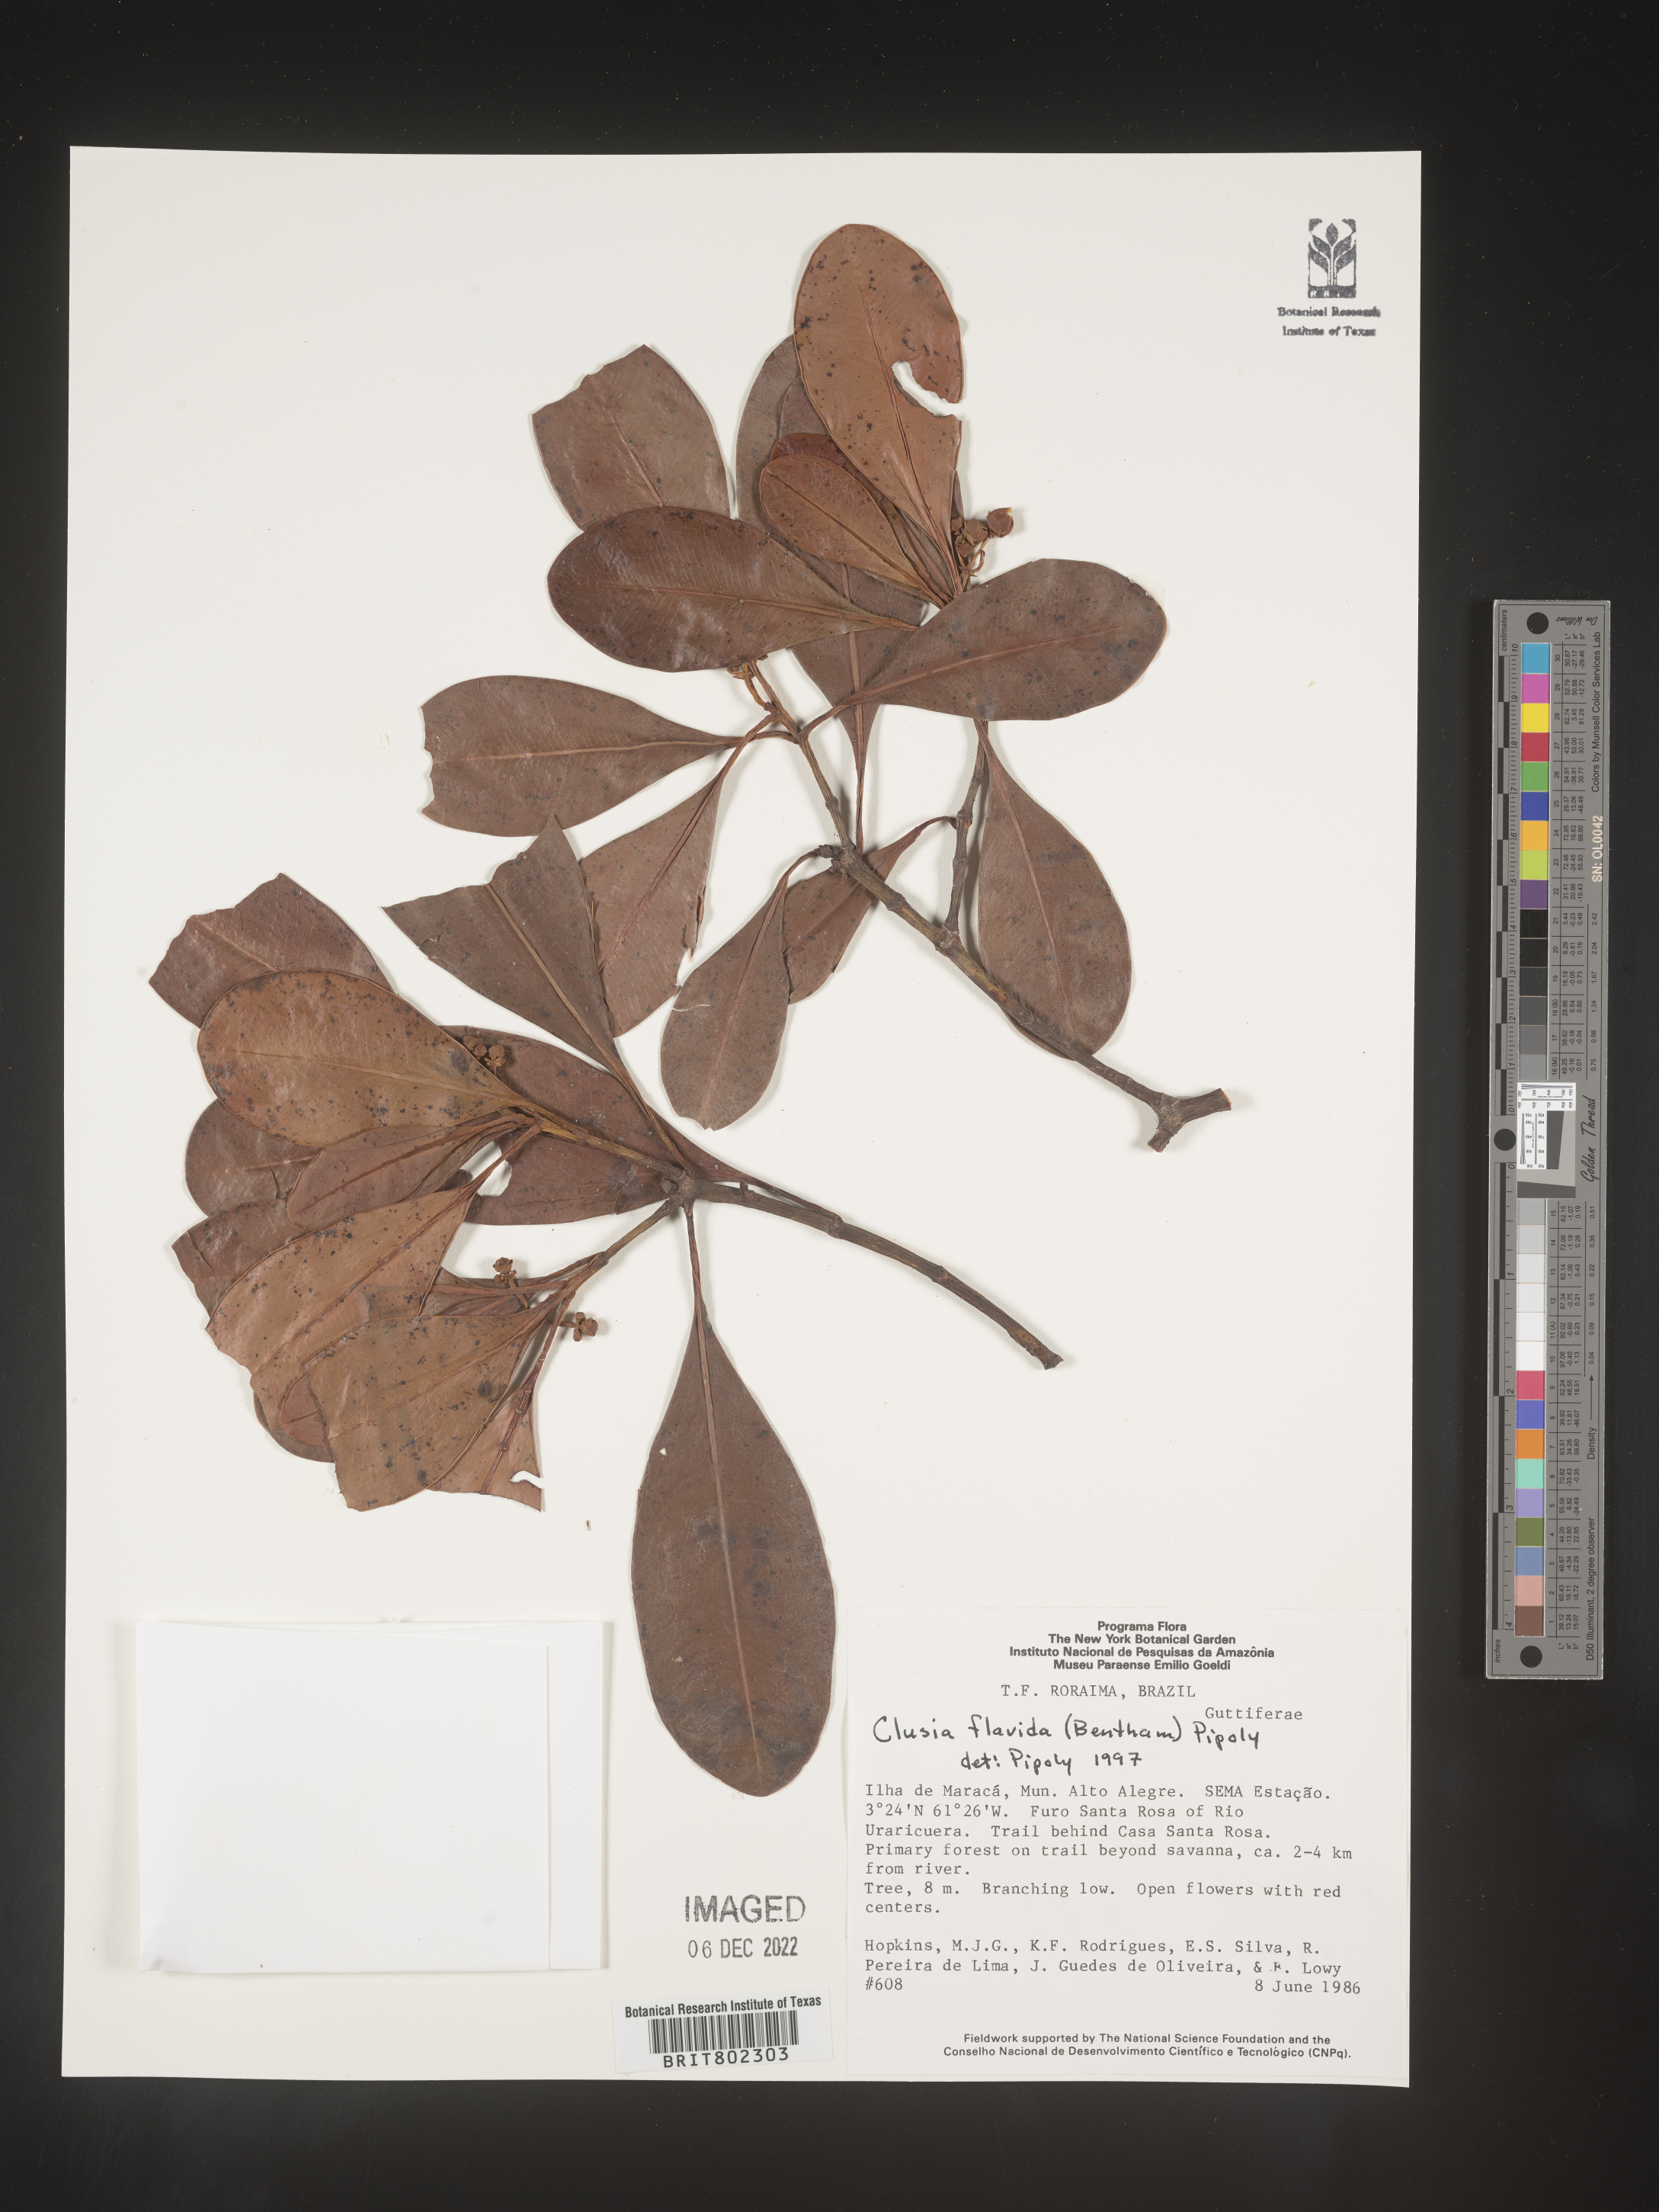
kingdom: Plantae
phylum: Tracheophyta
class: Magnoliopsida
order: Malpighiales
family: Clusiaceae
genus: Clusia
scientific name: Clusia flavida
